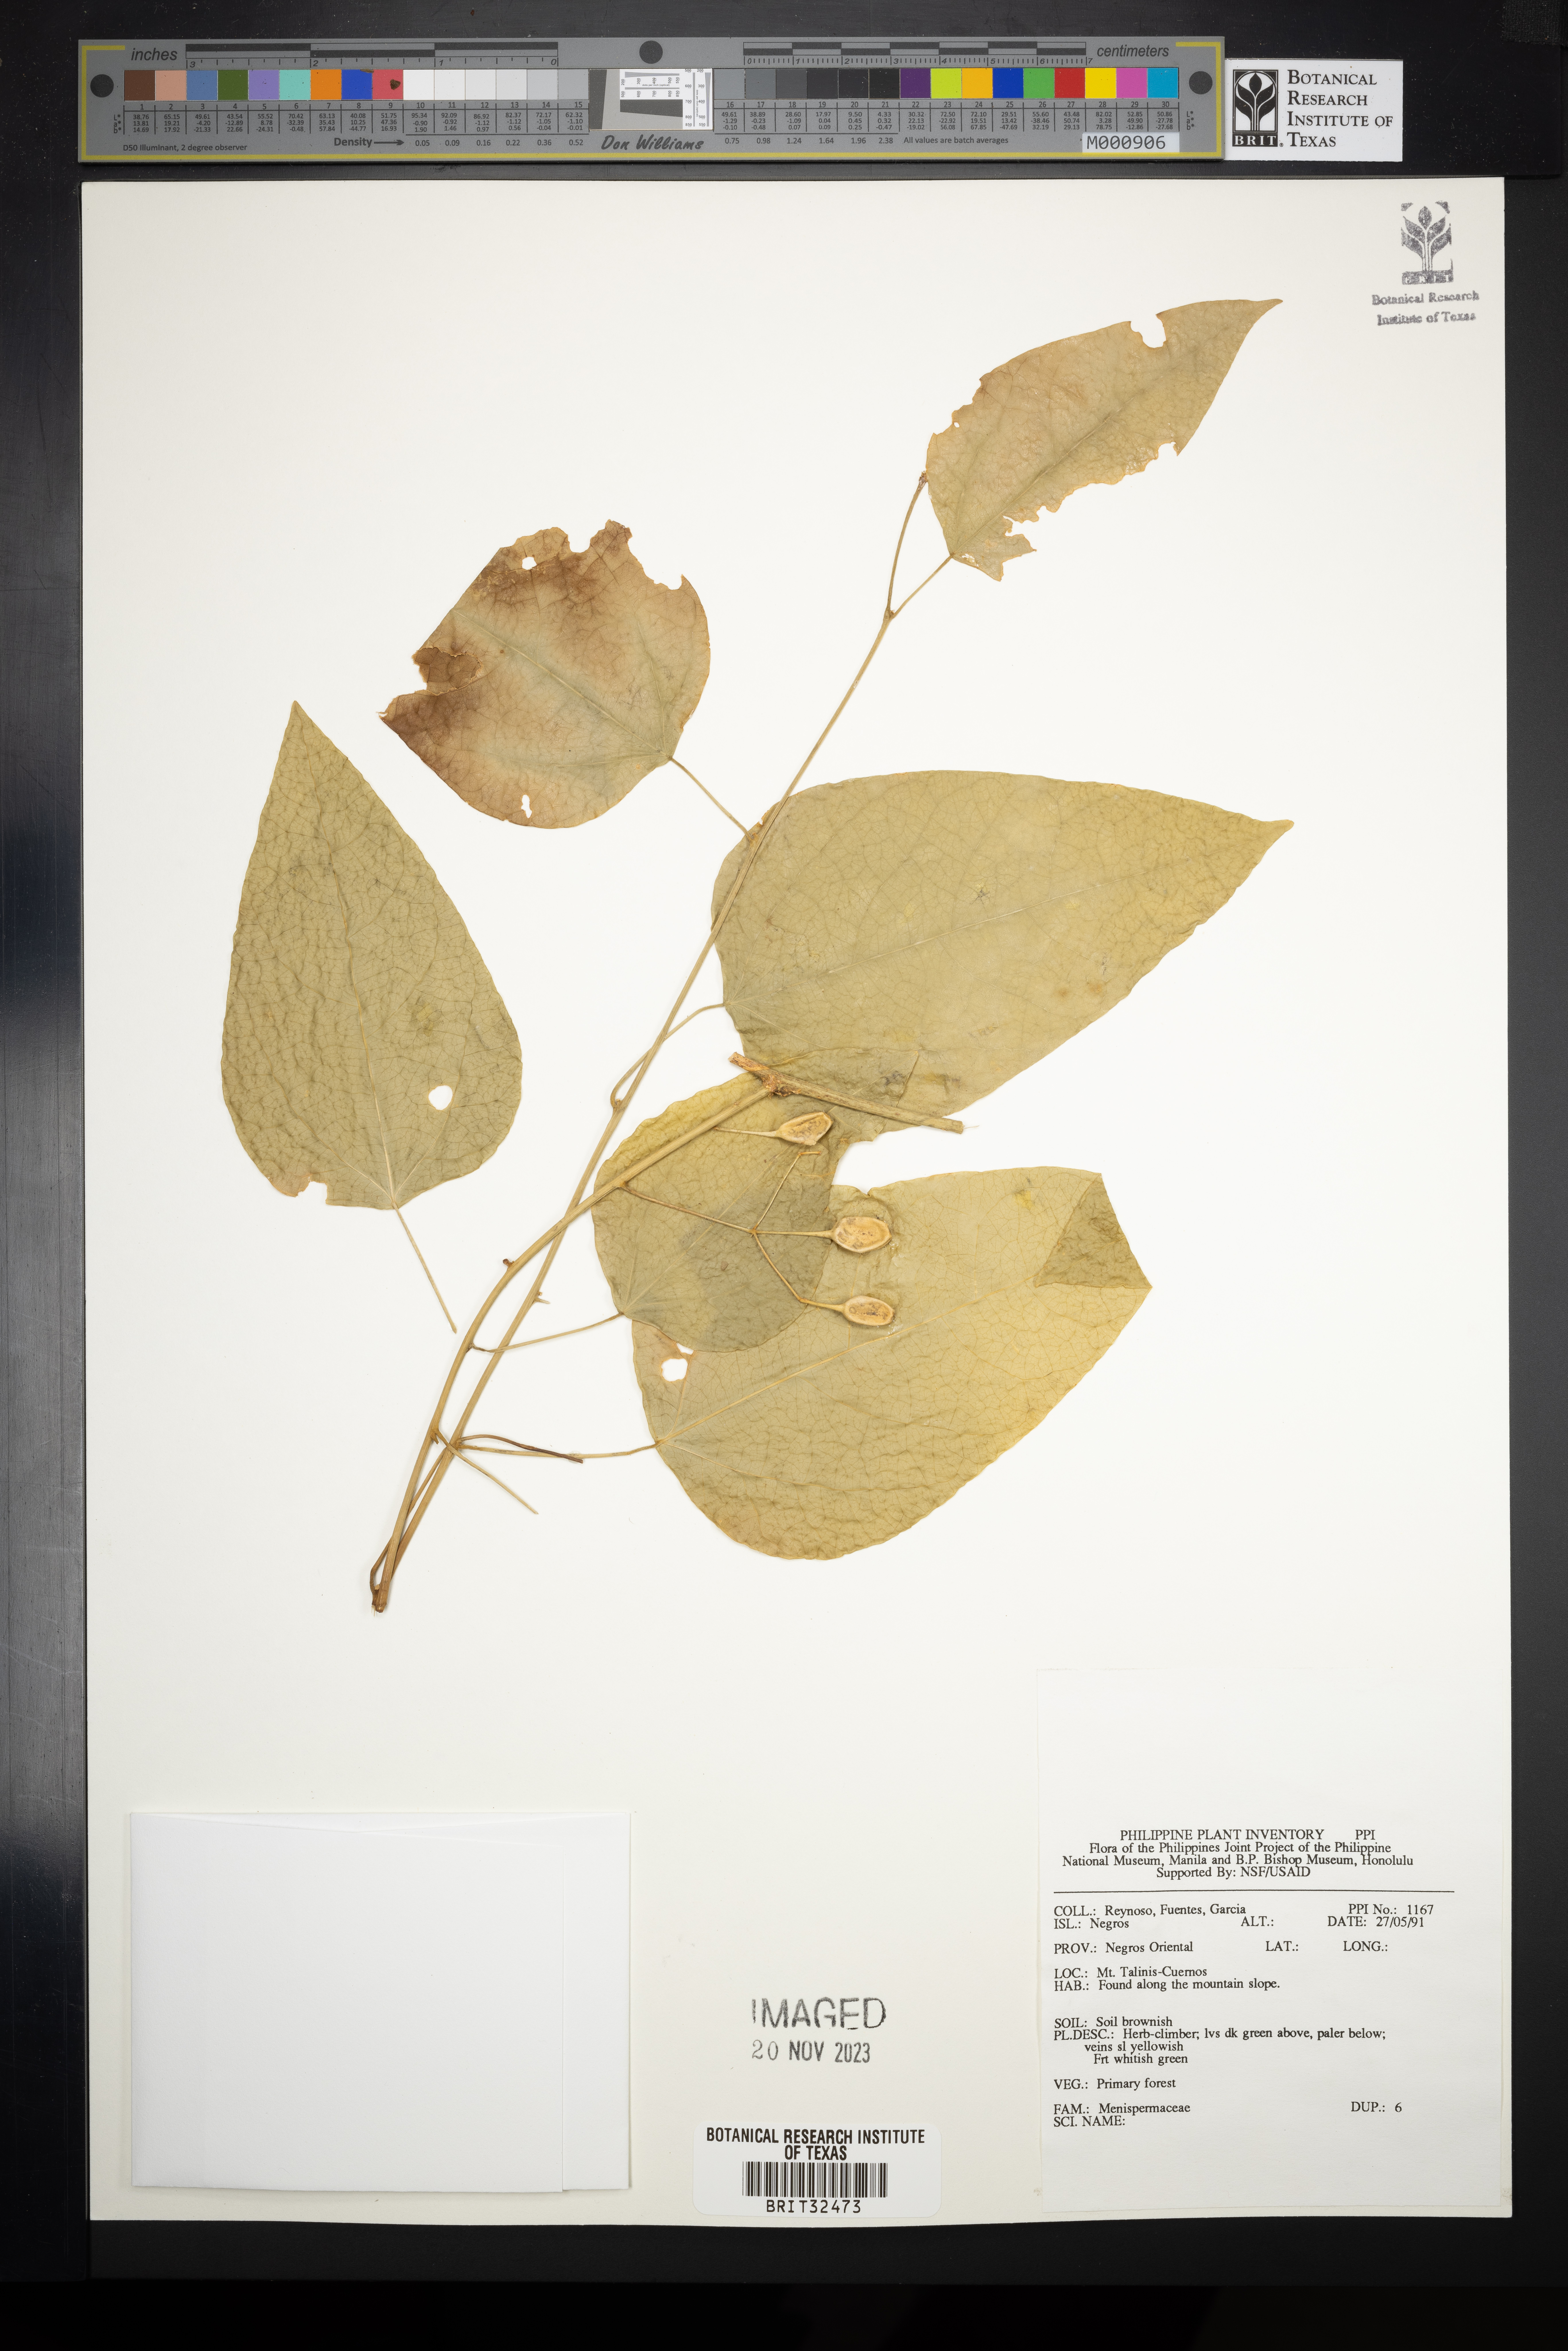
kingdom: Plantae
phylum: Tracheophyta
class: Magnoliopsida
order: Ranunculales
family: Menispermaceae
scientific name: Menispermaceae
